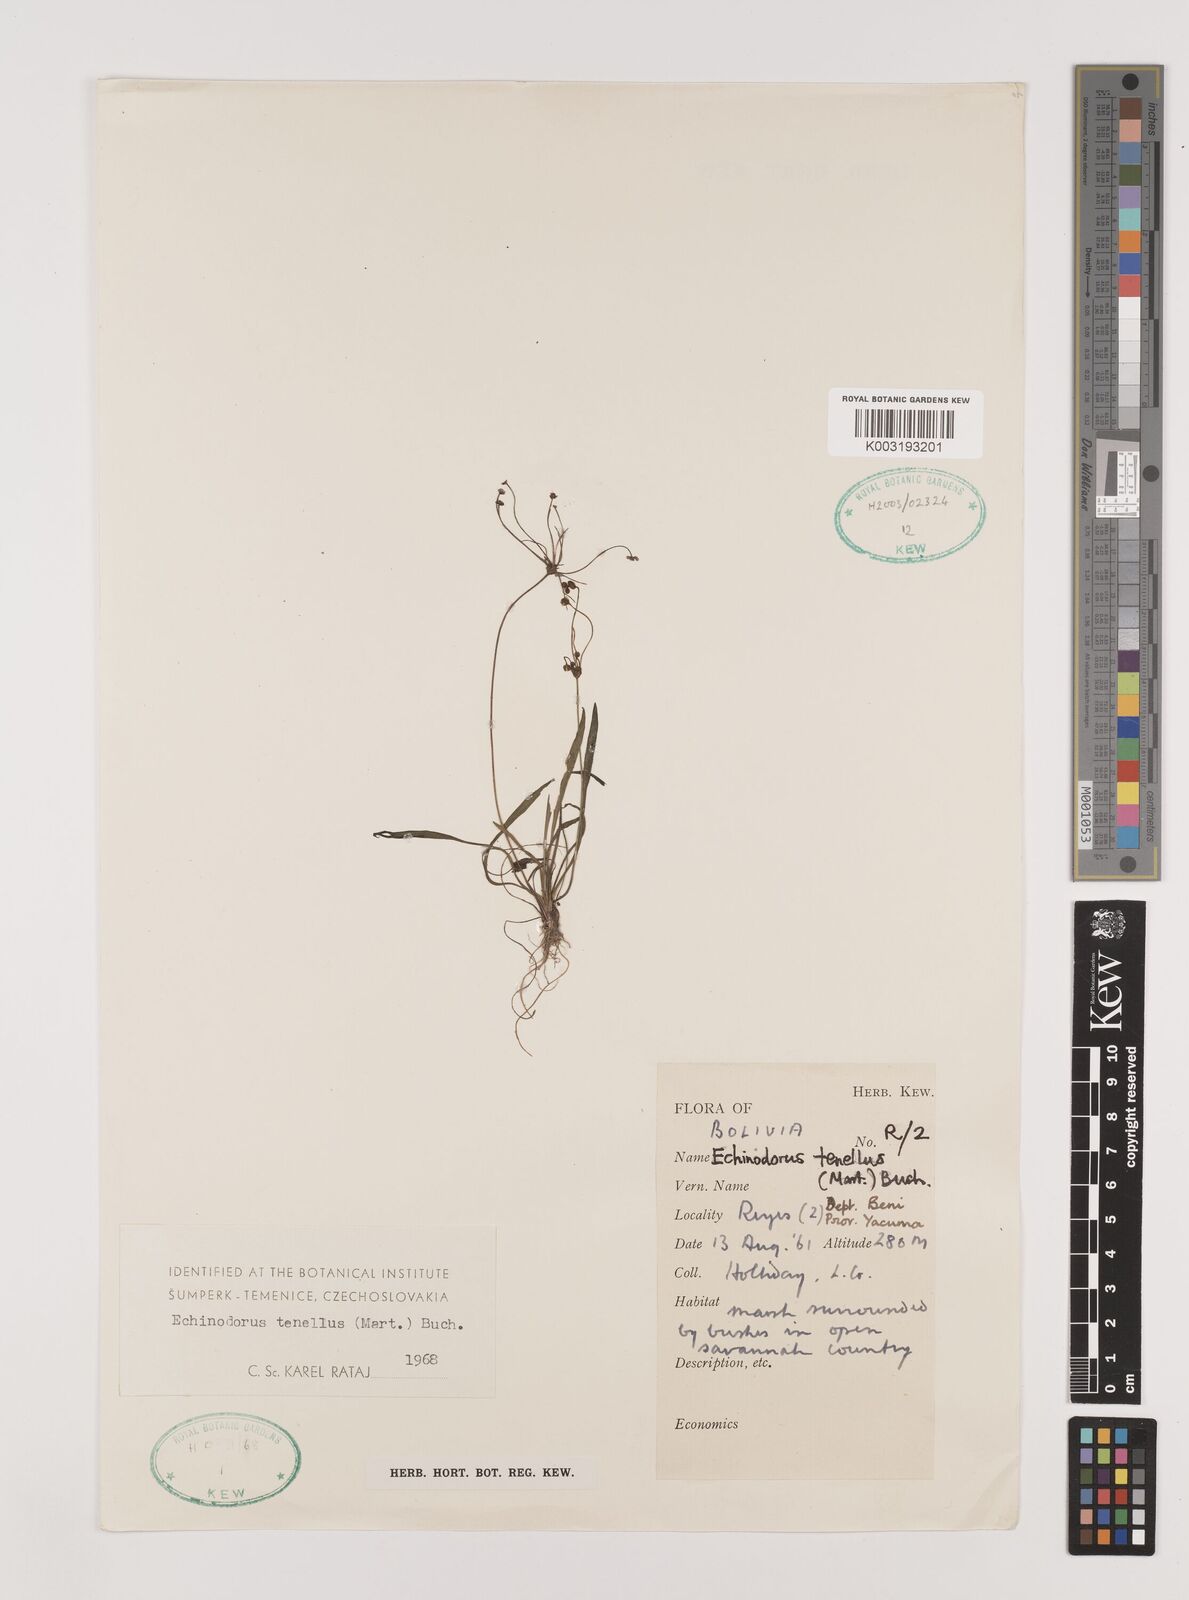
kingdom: Plantae
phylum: Tracheophyta
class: Liliopsida
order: Alismatales
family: Alismataceae
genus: Helanthium
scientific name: Helanthium tenellum
